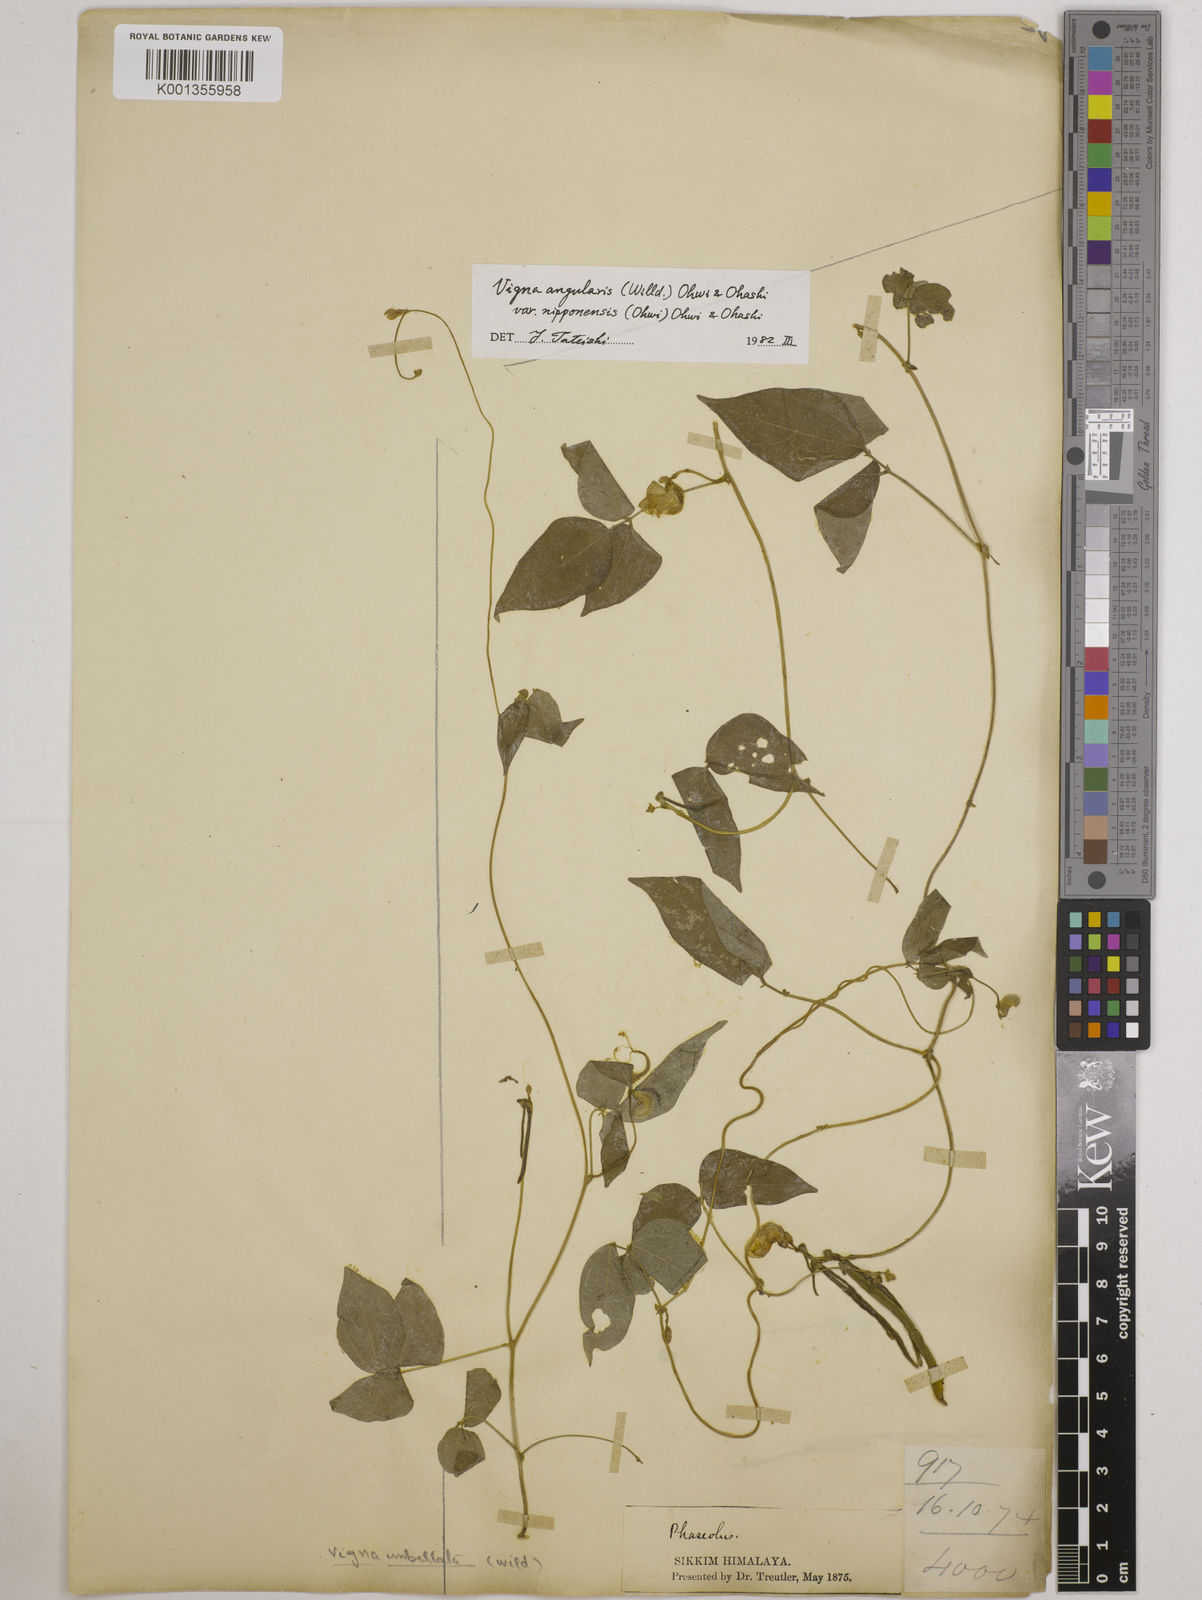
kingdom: Plantae
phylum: Tracheophyta
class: Magnoliopsida
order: Fabales
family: Fabaceae
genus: Vigna
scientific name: Vigna
